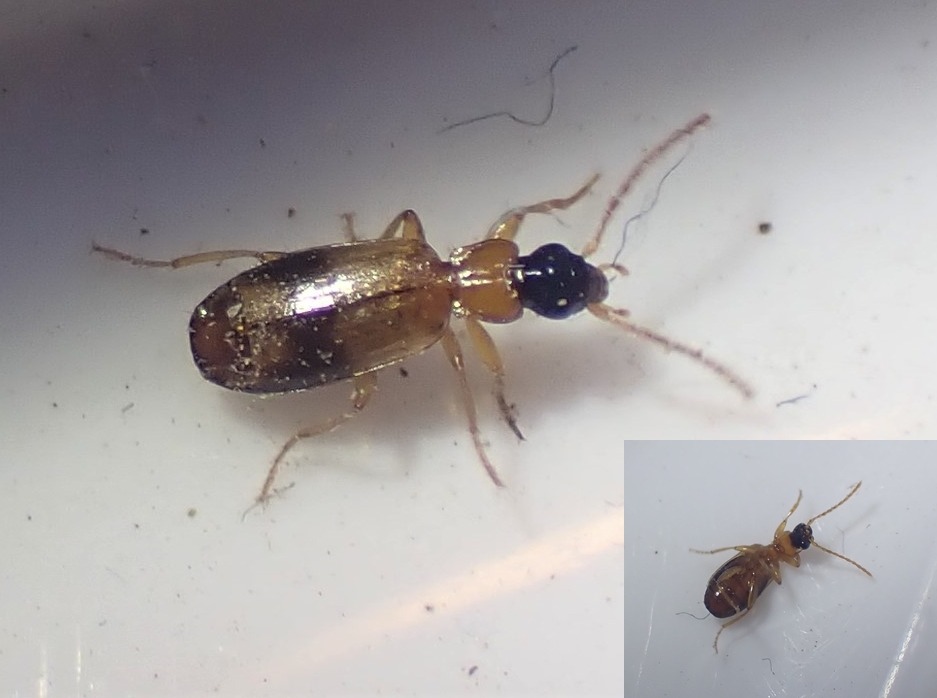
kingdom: Animalia
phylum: Arthropoda
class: Insecta
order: Coleoptera
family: Carabidae
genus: Philorhizus
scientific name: Philorhizus sigma
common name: Båndtegnet sivløber
